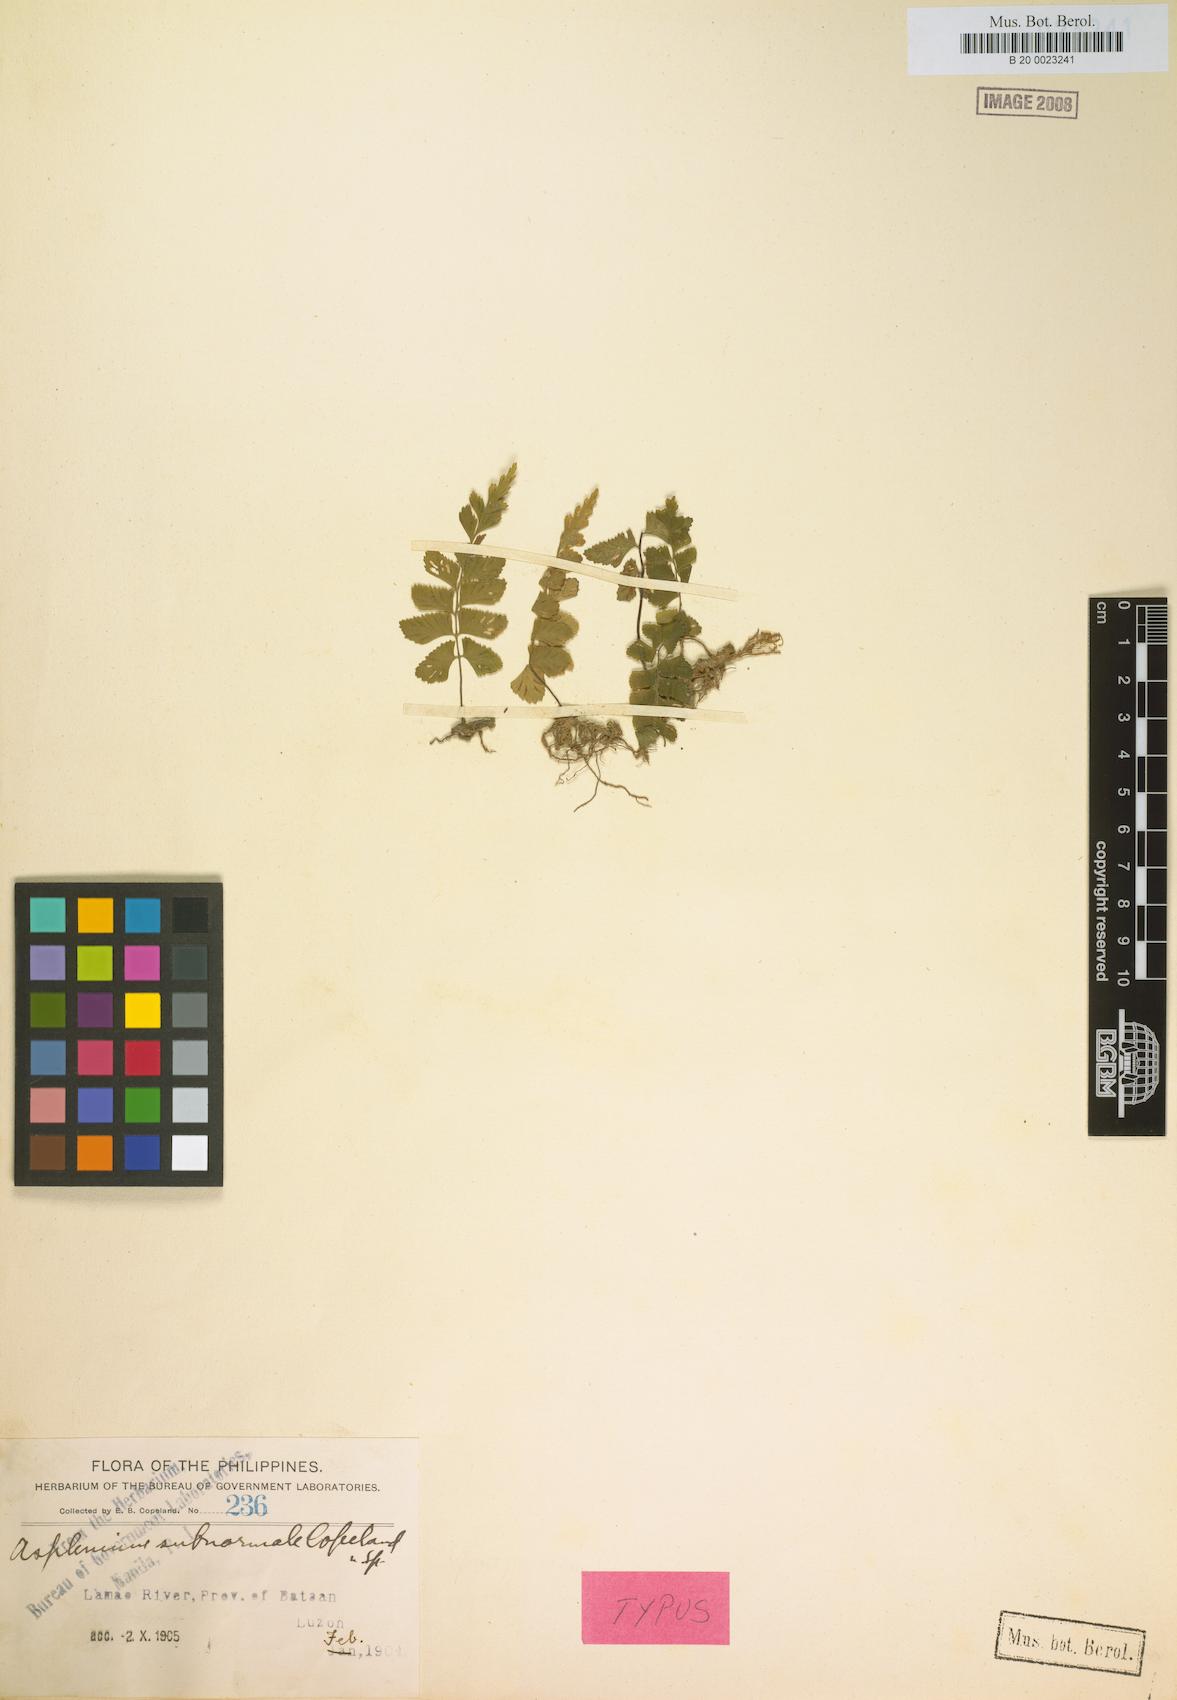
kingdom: Plantae
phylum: Tracheophyta
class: Polypodiopsida
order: Polypodiales
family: Aspleniaceae
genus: Hymenasplenium
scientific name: Hymenasplenium subnormale
